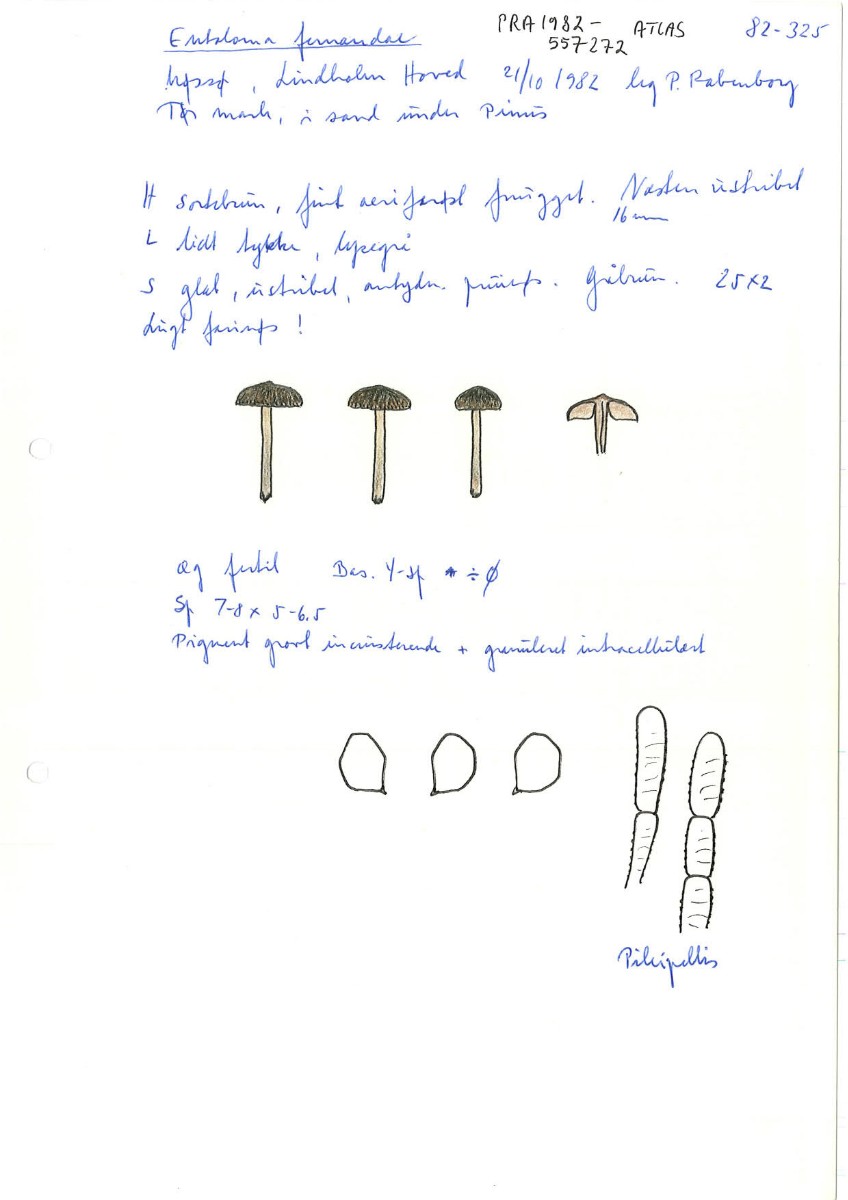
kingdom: Fungi
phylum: Basidiomycota
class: Agaricomycetes
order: Agaricales
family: Entolomataceae
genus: Entoloma
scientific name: Entoloma fernandae
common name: filtet rødblad
